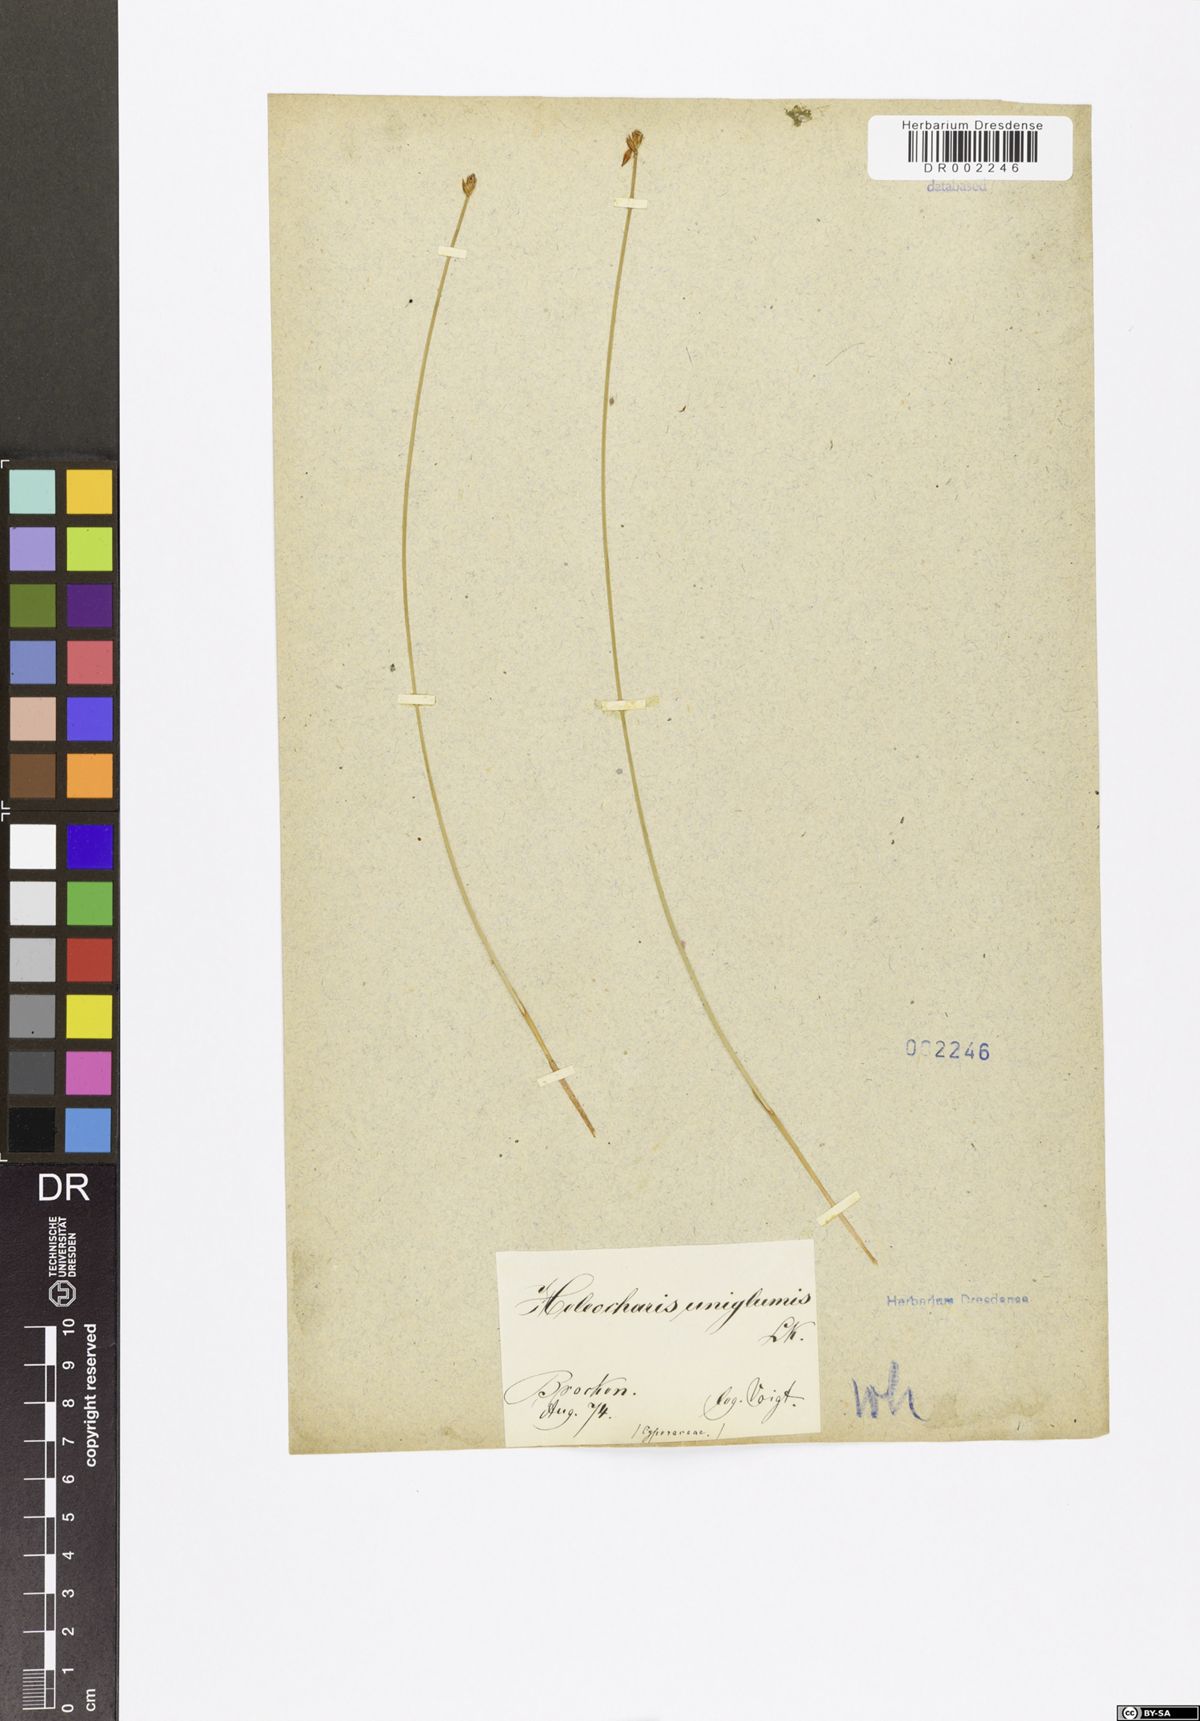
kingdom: Plantae
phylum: Tracheophyta
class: Liliopsida
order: Poales
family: Cyperaceae
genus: Eleocharis
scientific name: Eleocharis uniglumis
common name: Slender spike-rush
